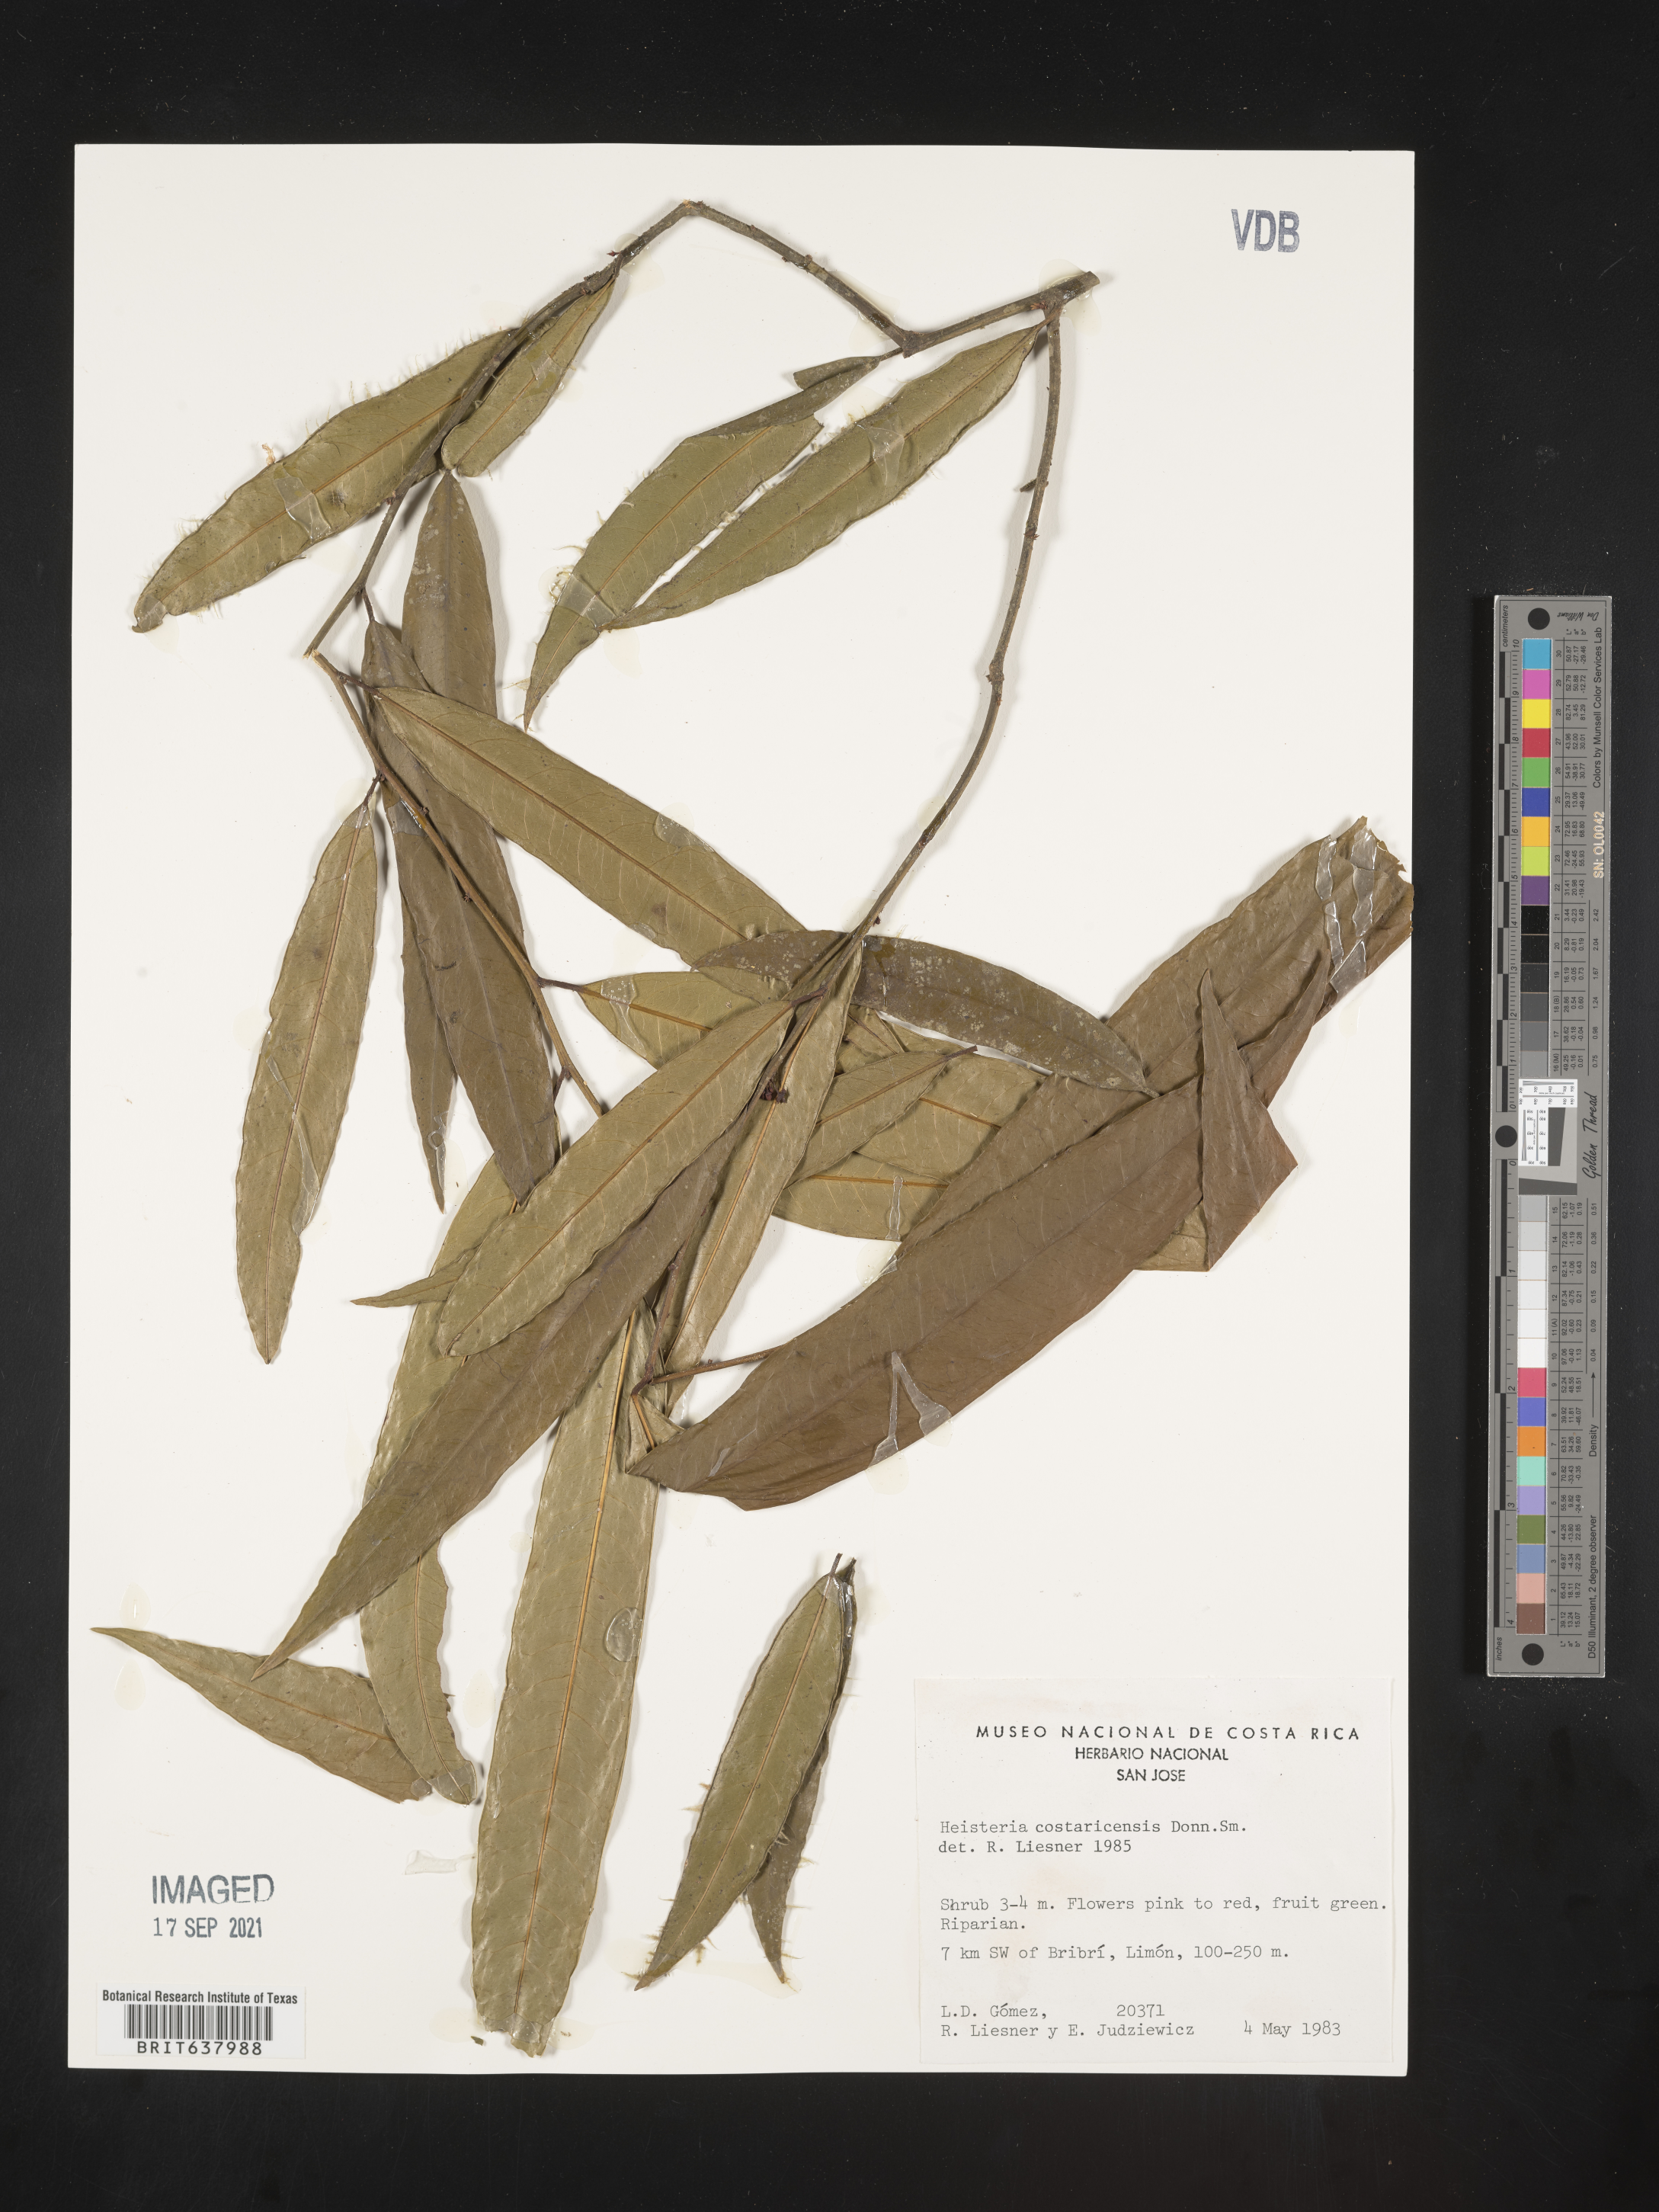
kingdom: Plantae
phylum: Tracheophyta
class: Magnoliopsida
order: Santalales
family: Erythropalaceae
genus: Heisteria
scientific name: Heisteria
